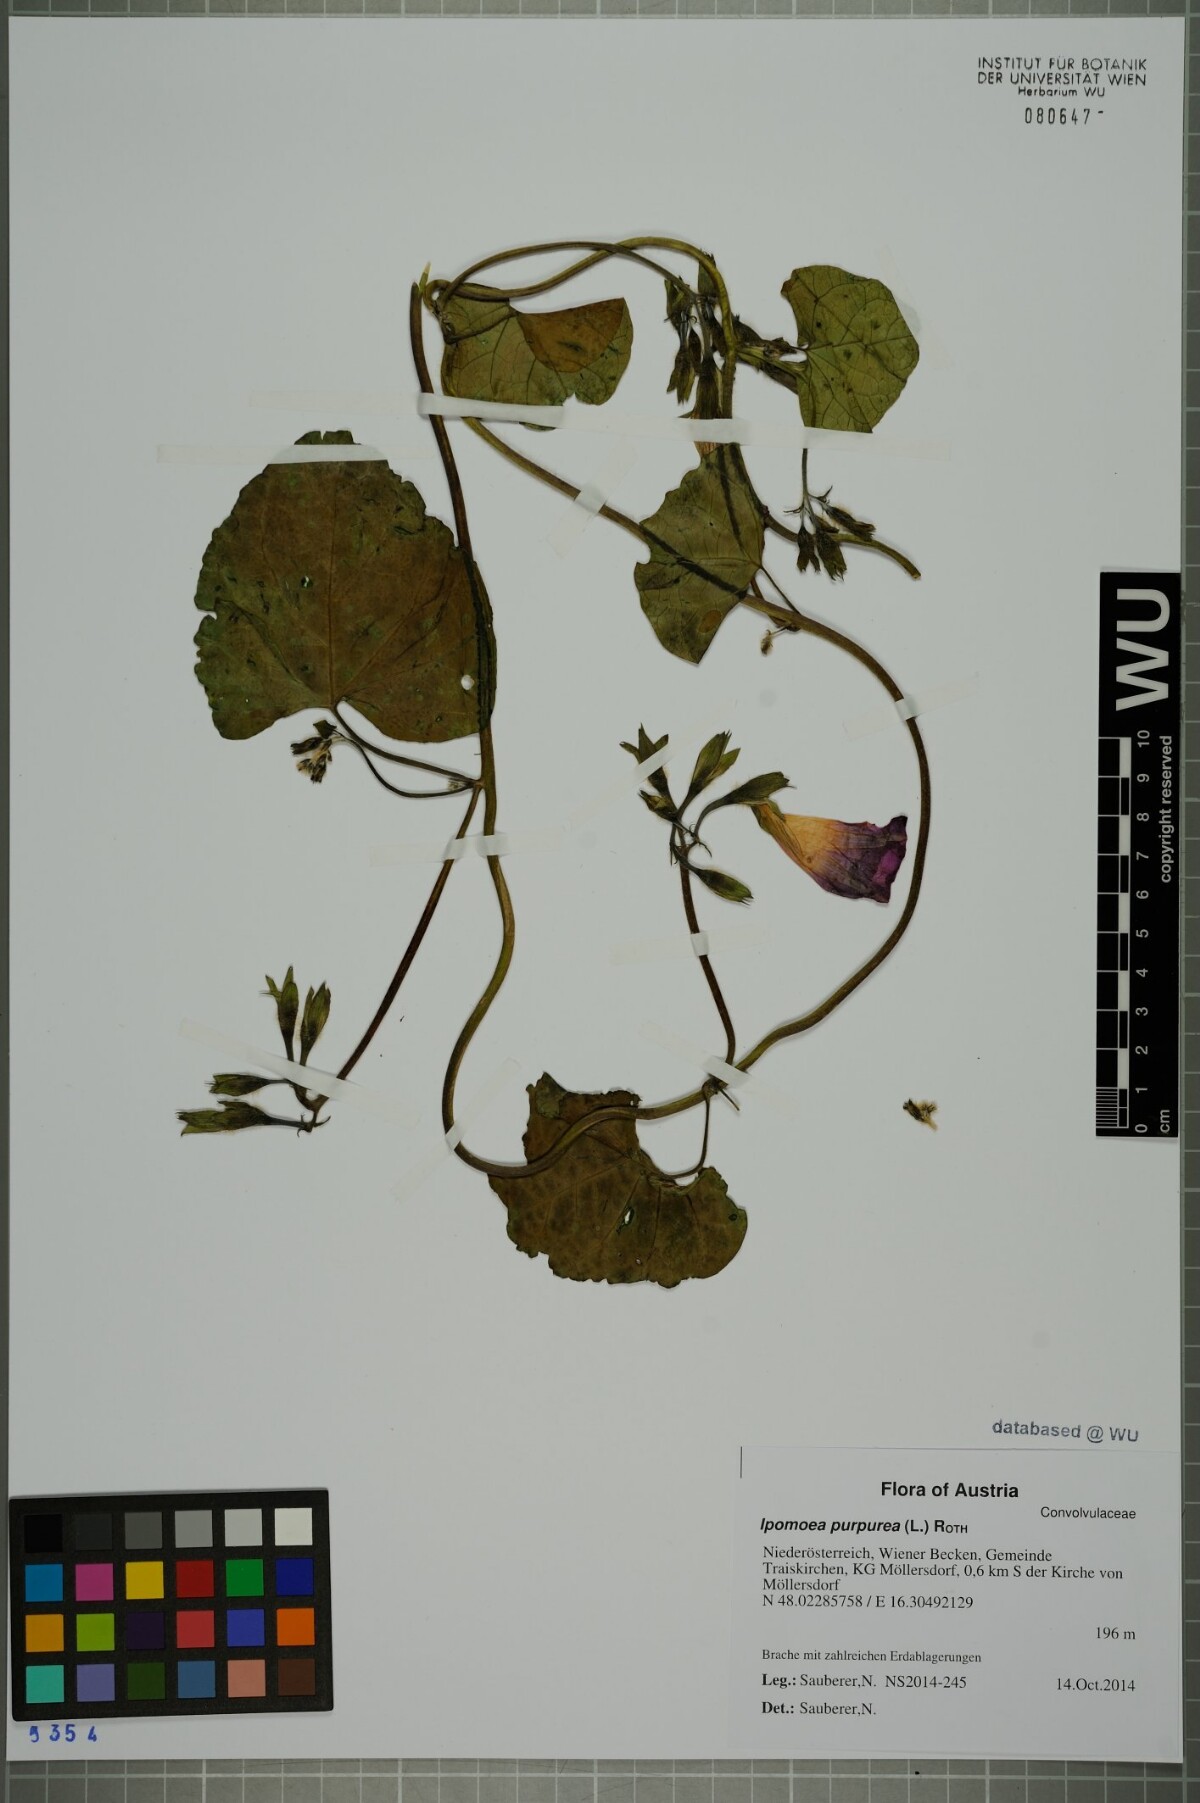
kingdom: Plantae
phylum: Tracheophyta
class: Magnoliopsida
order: Solanales
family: Convolvulaceae
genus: Ipomoea
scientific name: Ipomoea purpurea
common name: Common morning-glory
